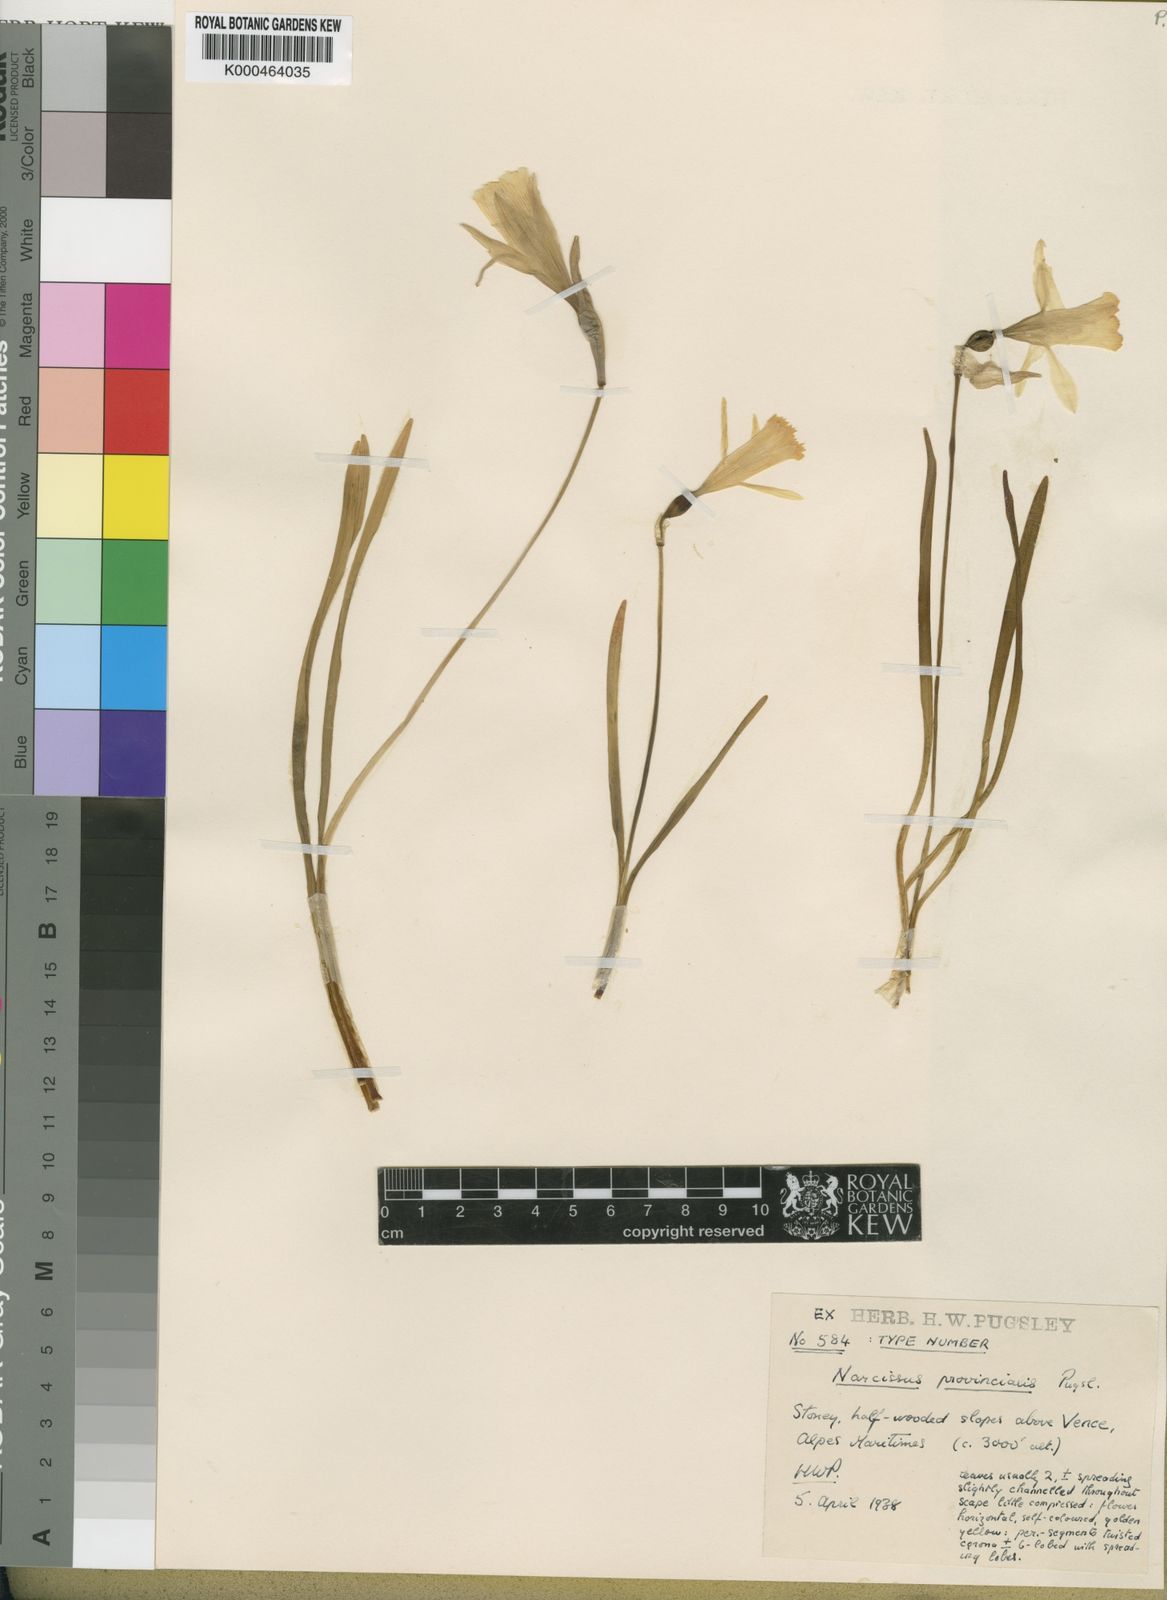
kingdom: Plantae
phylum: Tracheophyta
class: Liliopsida
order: Asparagales
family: Amaryllidaceae
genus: Narcissus
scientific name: Narcissus minor
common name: Lesser daffodil
